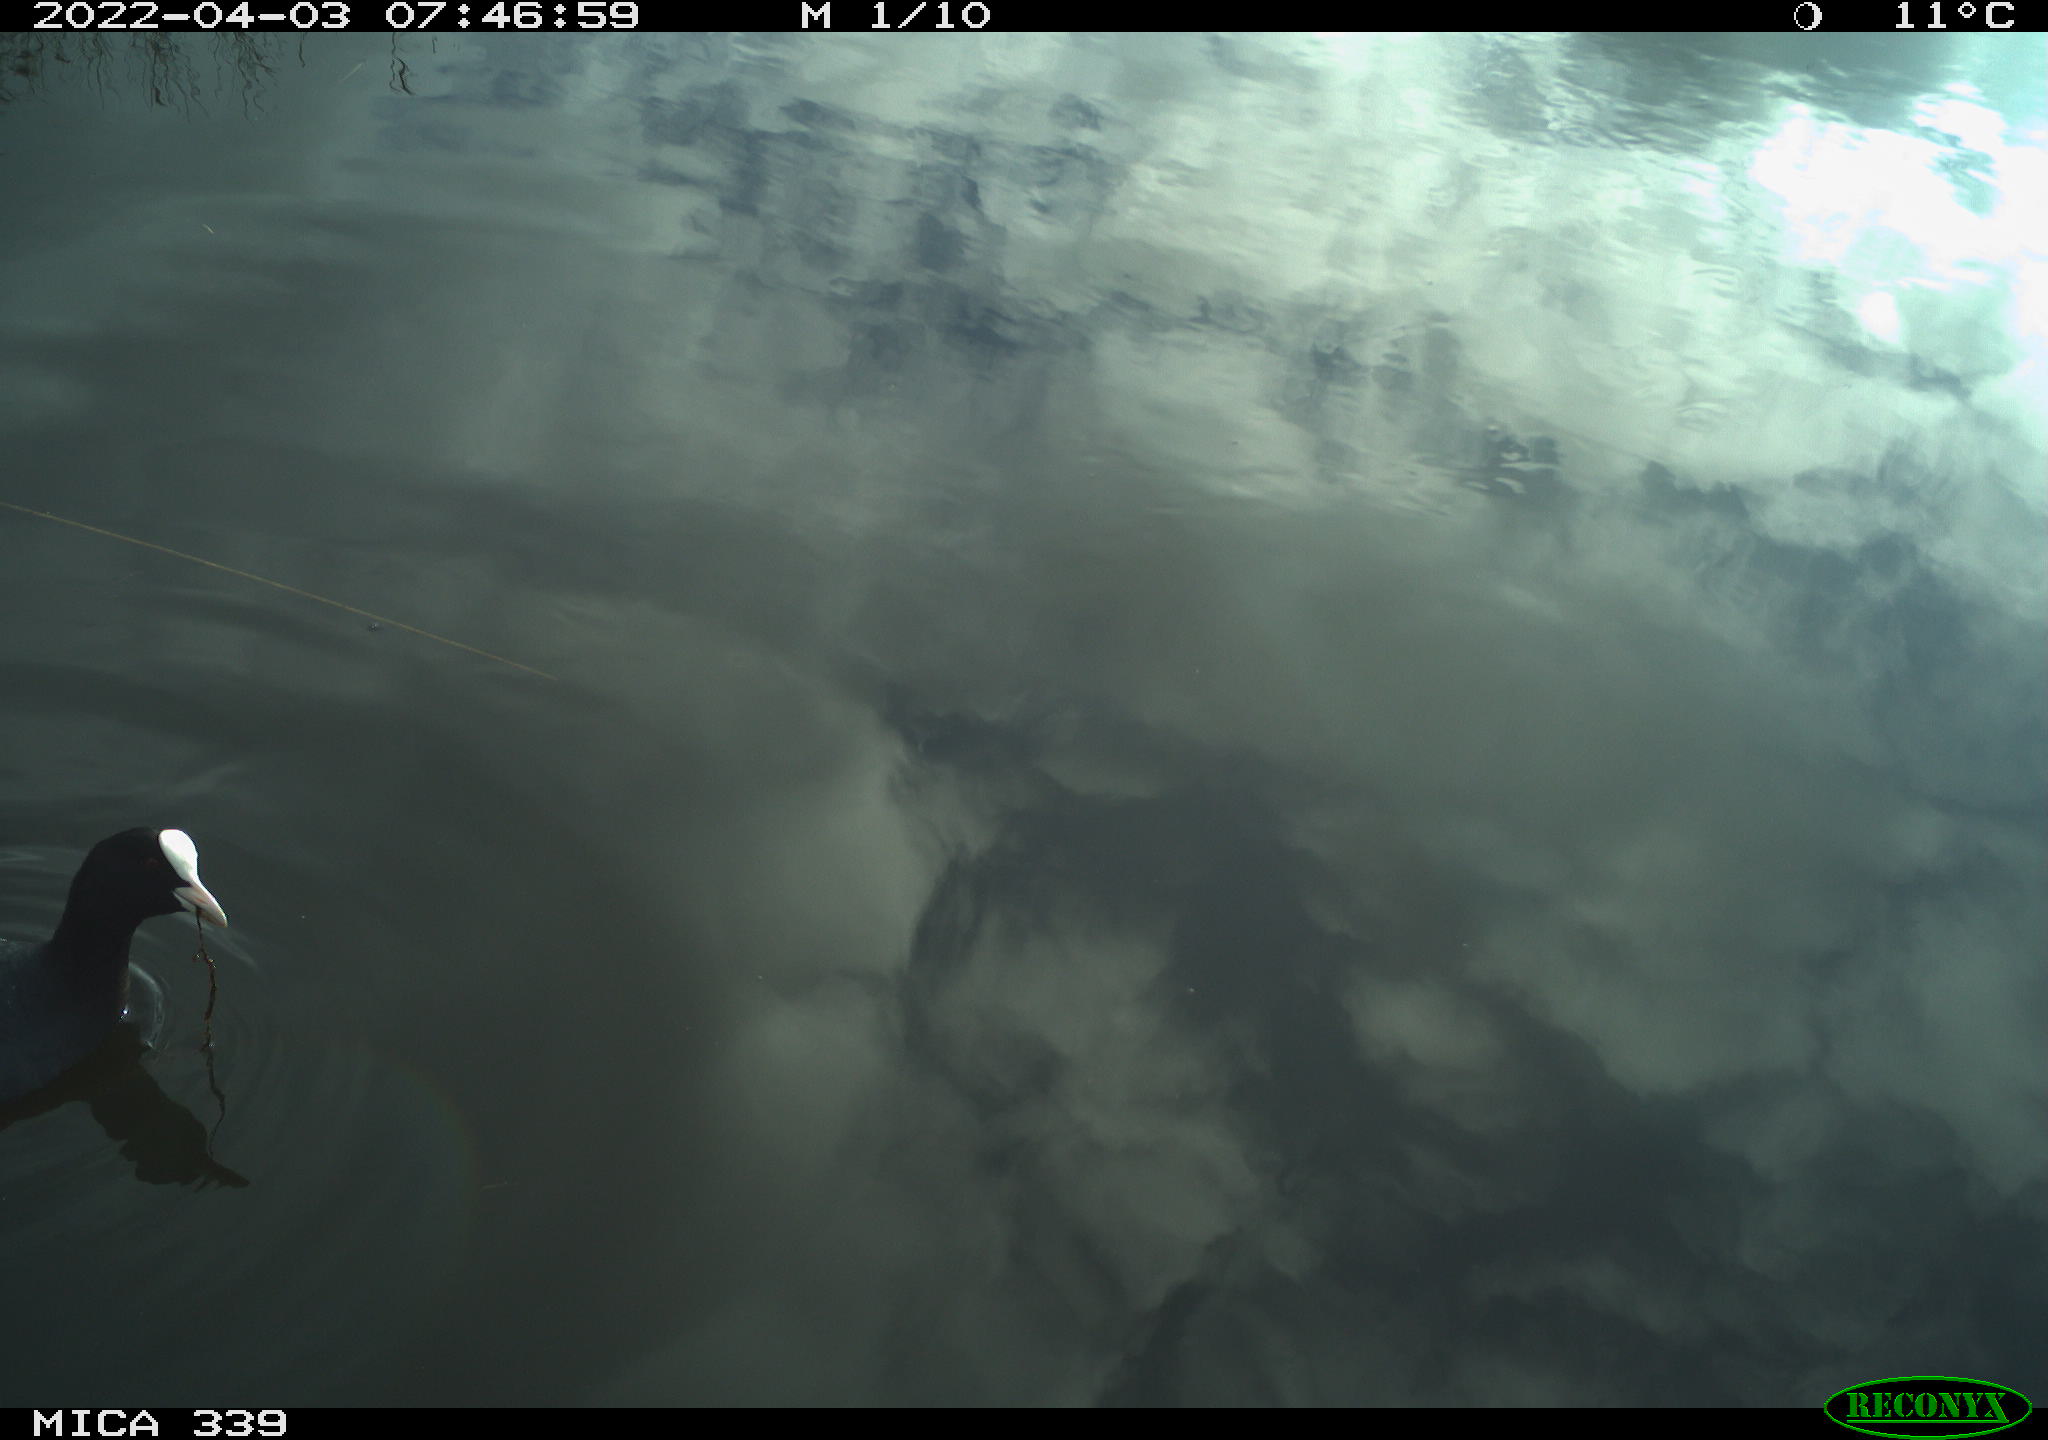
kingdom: Animalia
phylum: Chordata
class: Aves
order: Gruiformes
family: Rallidae
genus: Fulica
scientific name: Fulica atra
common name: Eurasian coot
